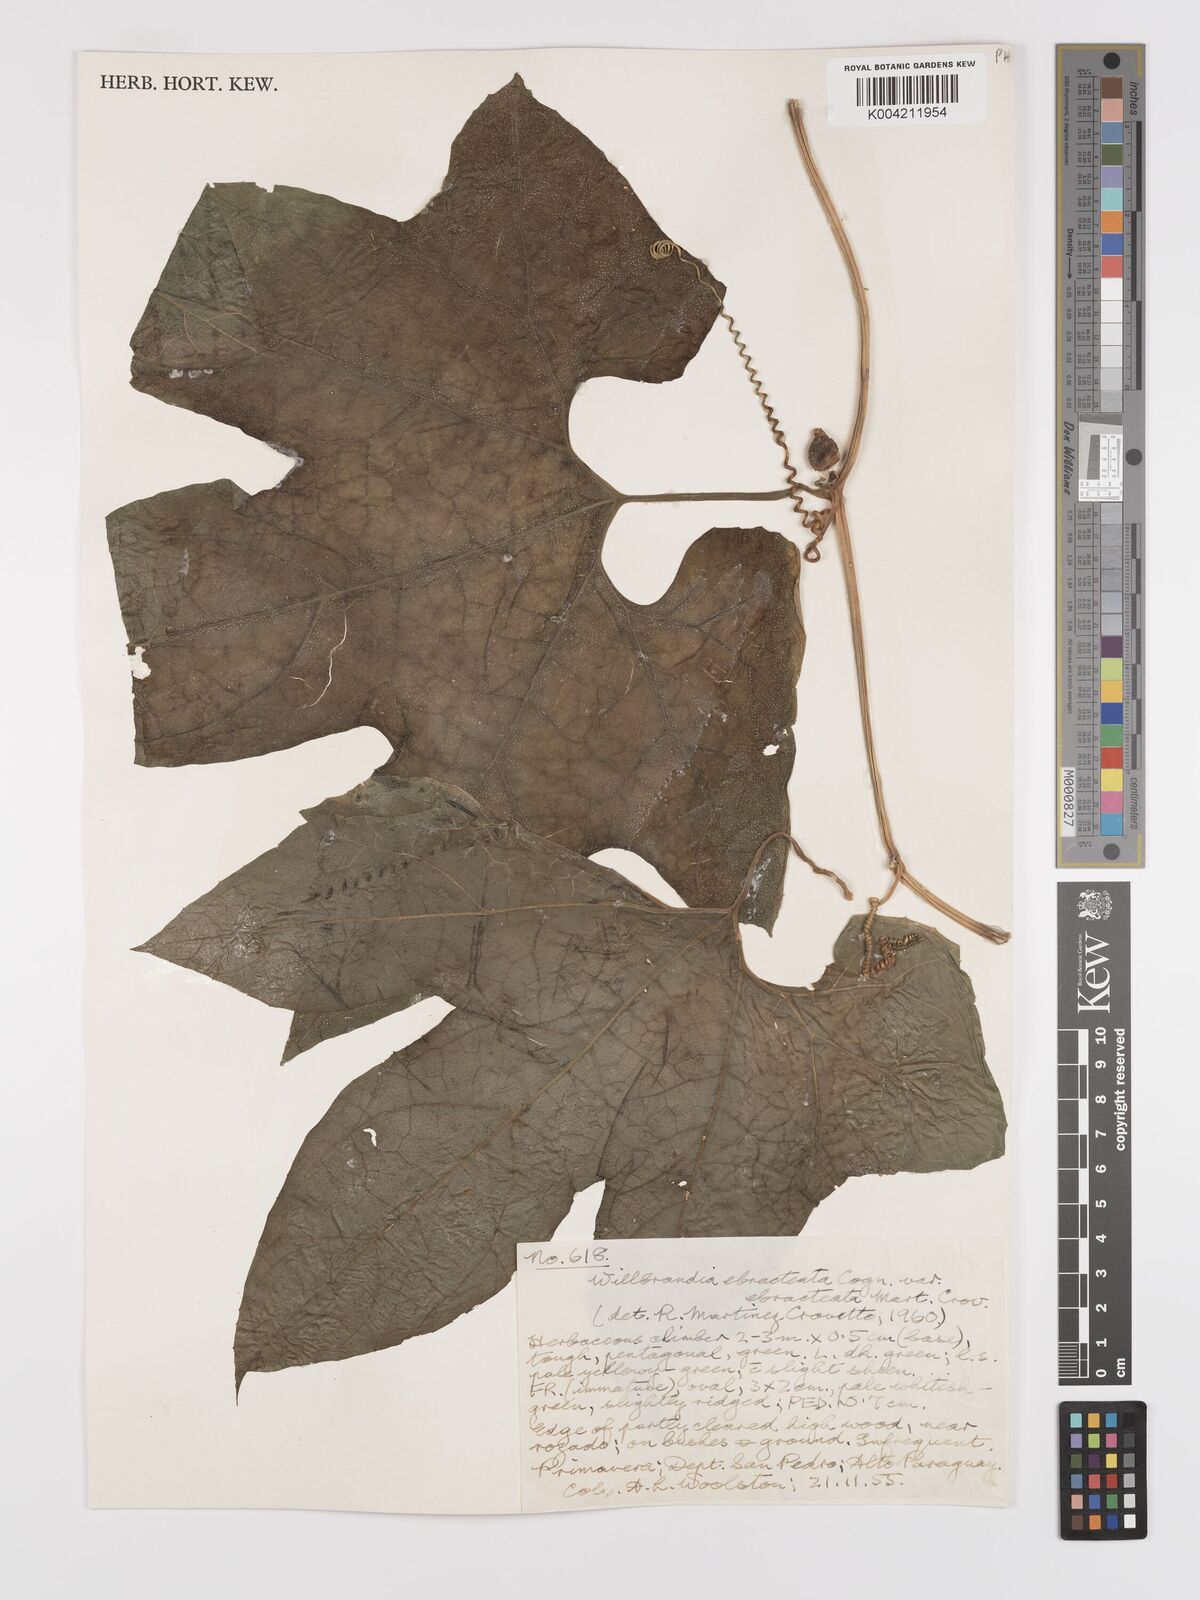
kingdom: Plantae
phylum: Tracheophyta
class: Magnoliopsida
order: Cucurbitales
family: Cucurbitaceae
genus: Wilbrandia
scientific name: Wilbrandia ebracteata
